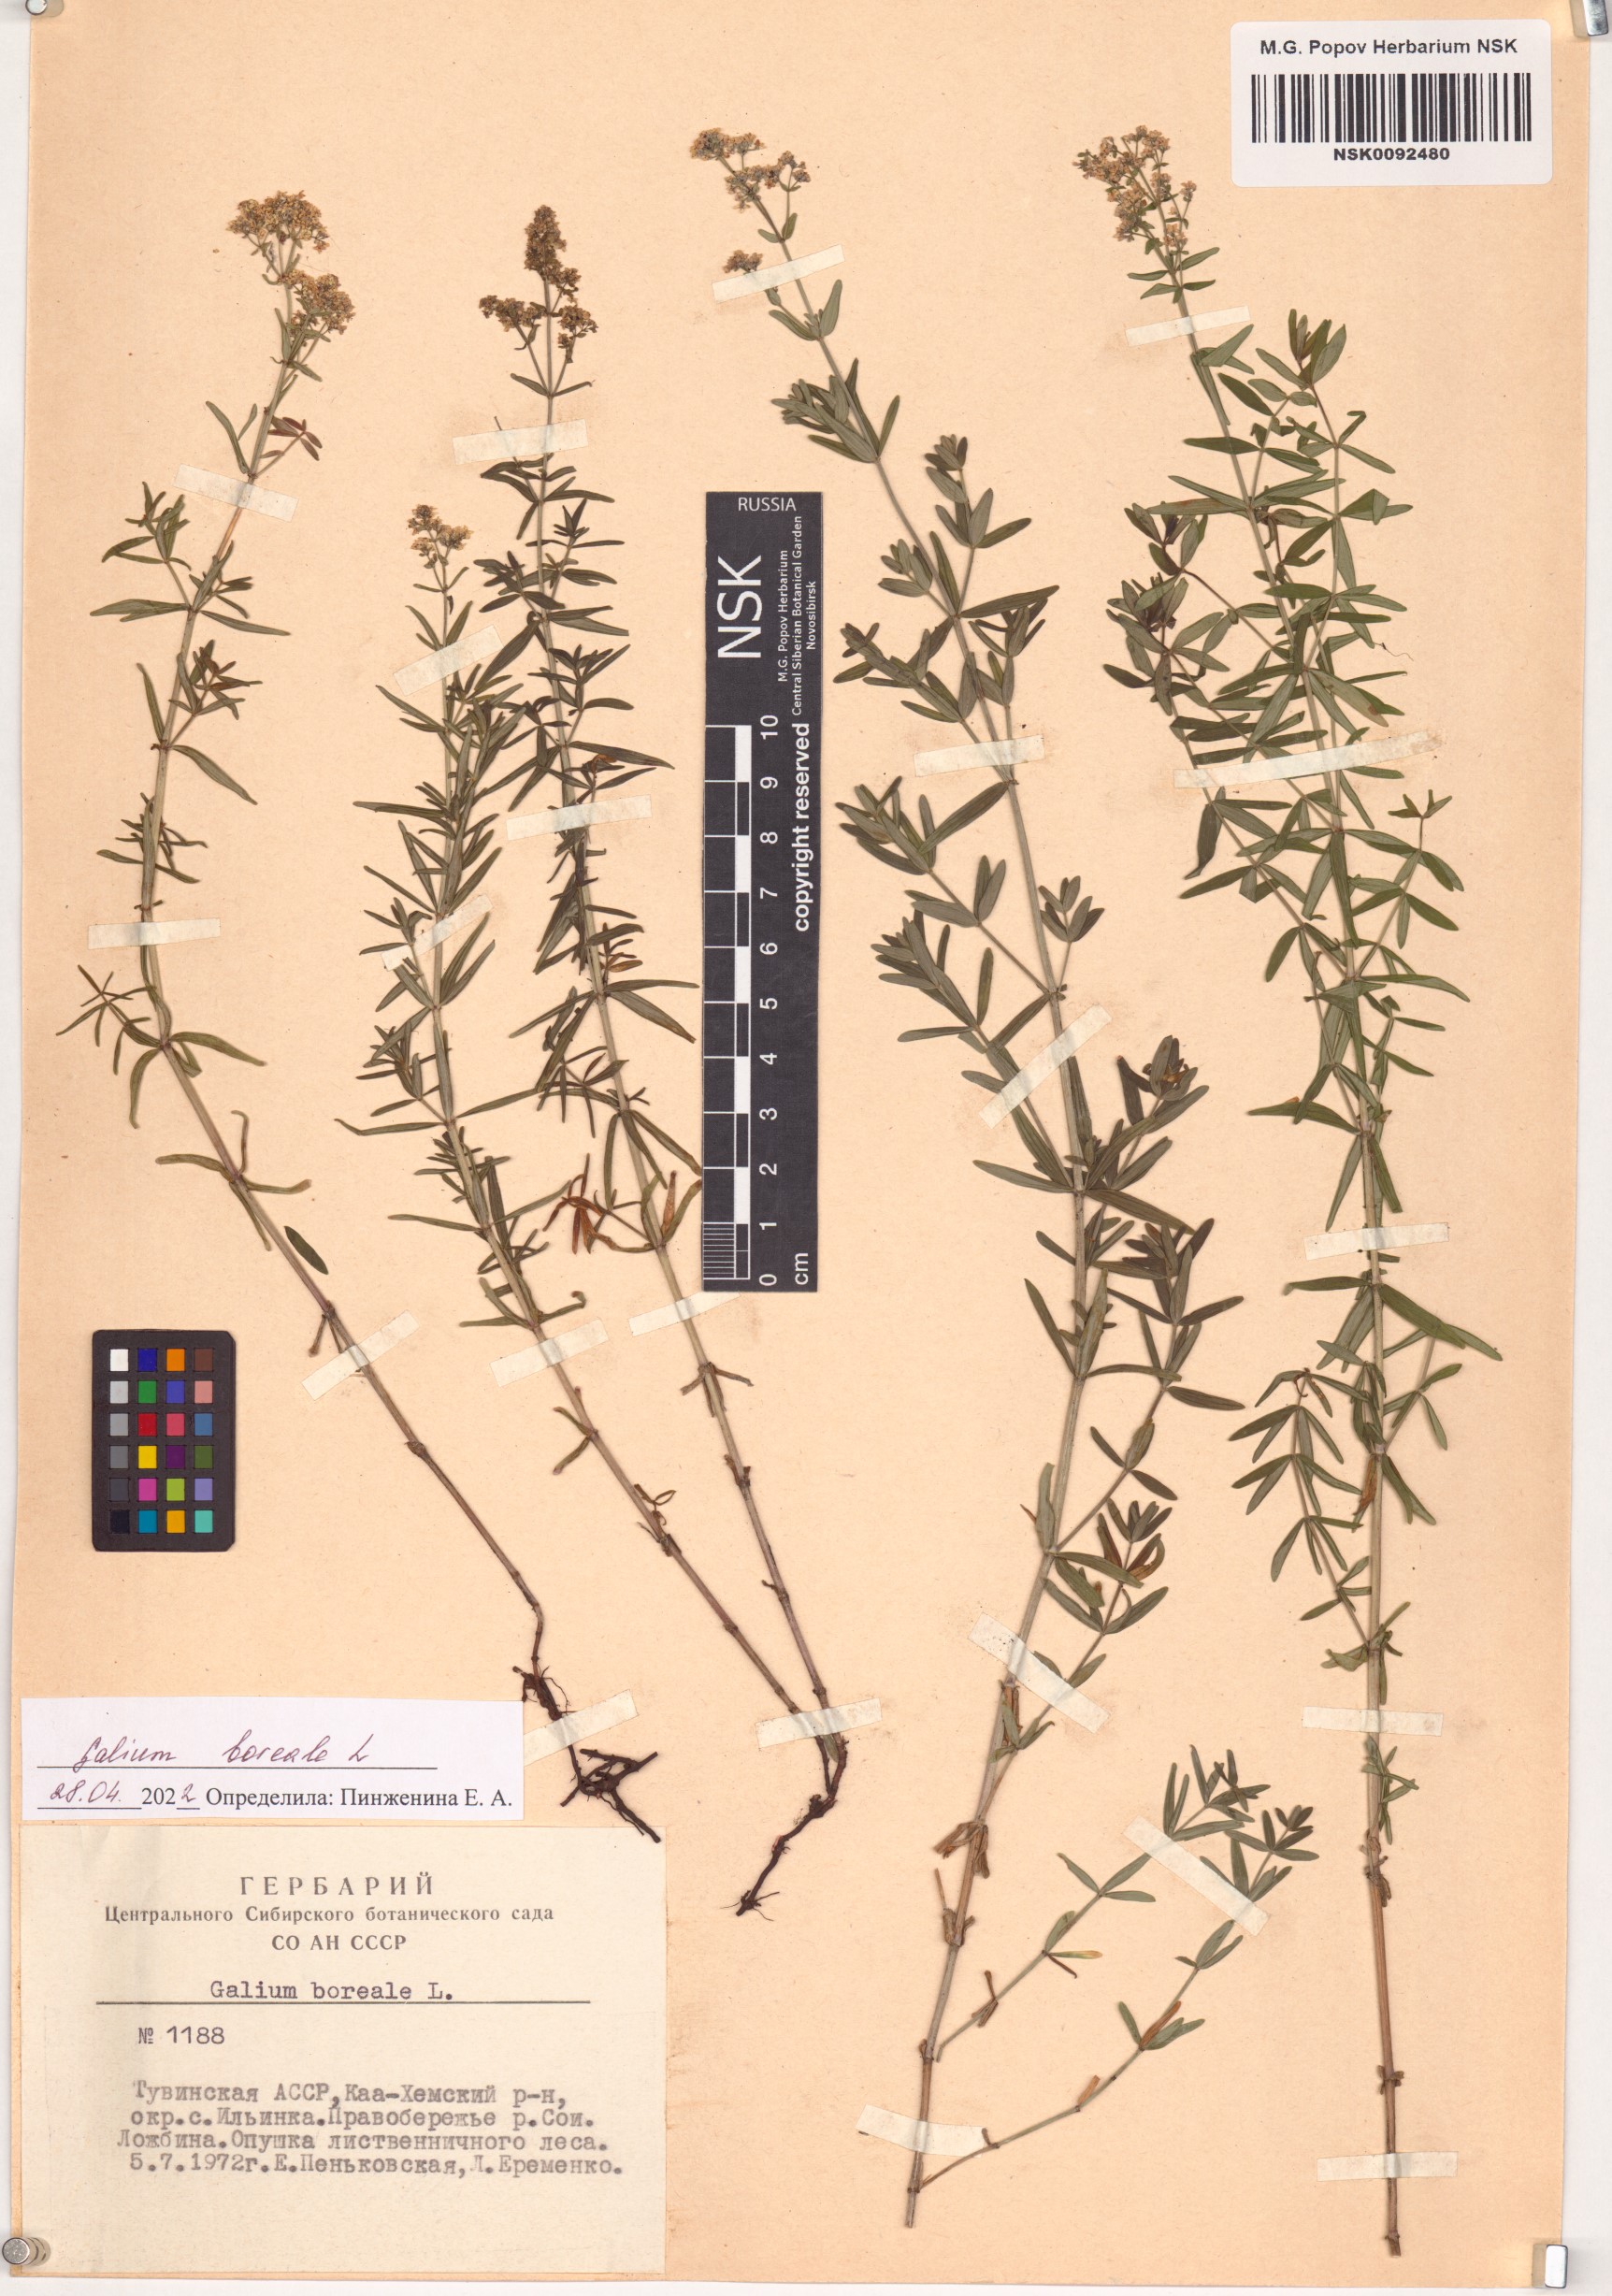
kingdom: Plantae
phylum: Tracheophyta
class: Magnoliopsida
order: Gentianales
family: Rubiaceae
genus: Galium
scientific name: Galium boreale
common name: Northern bedstraw
